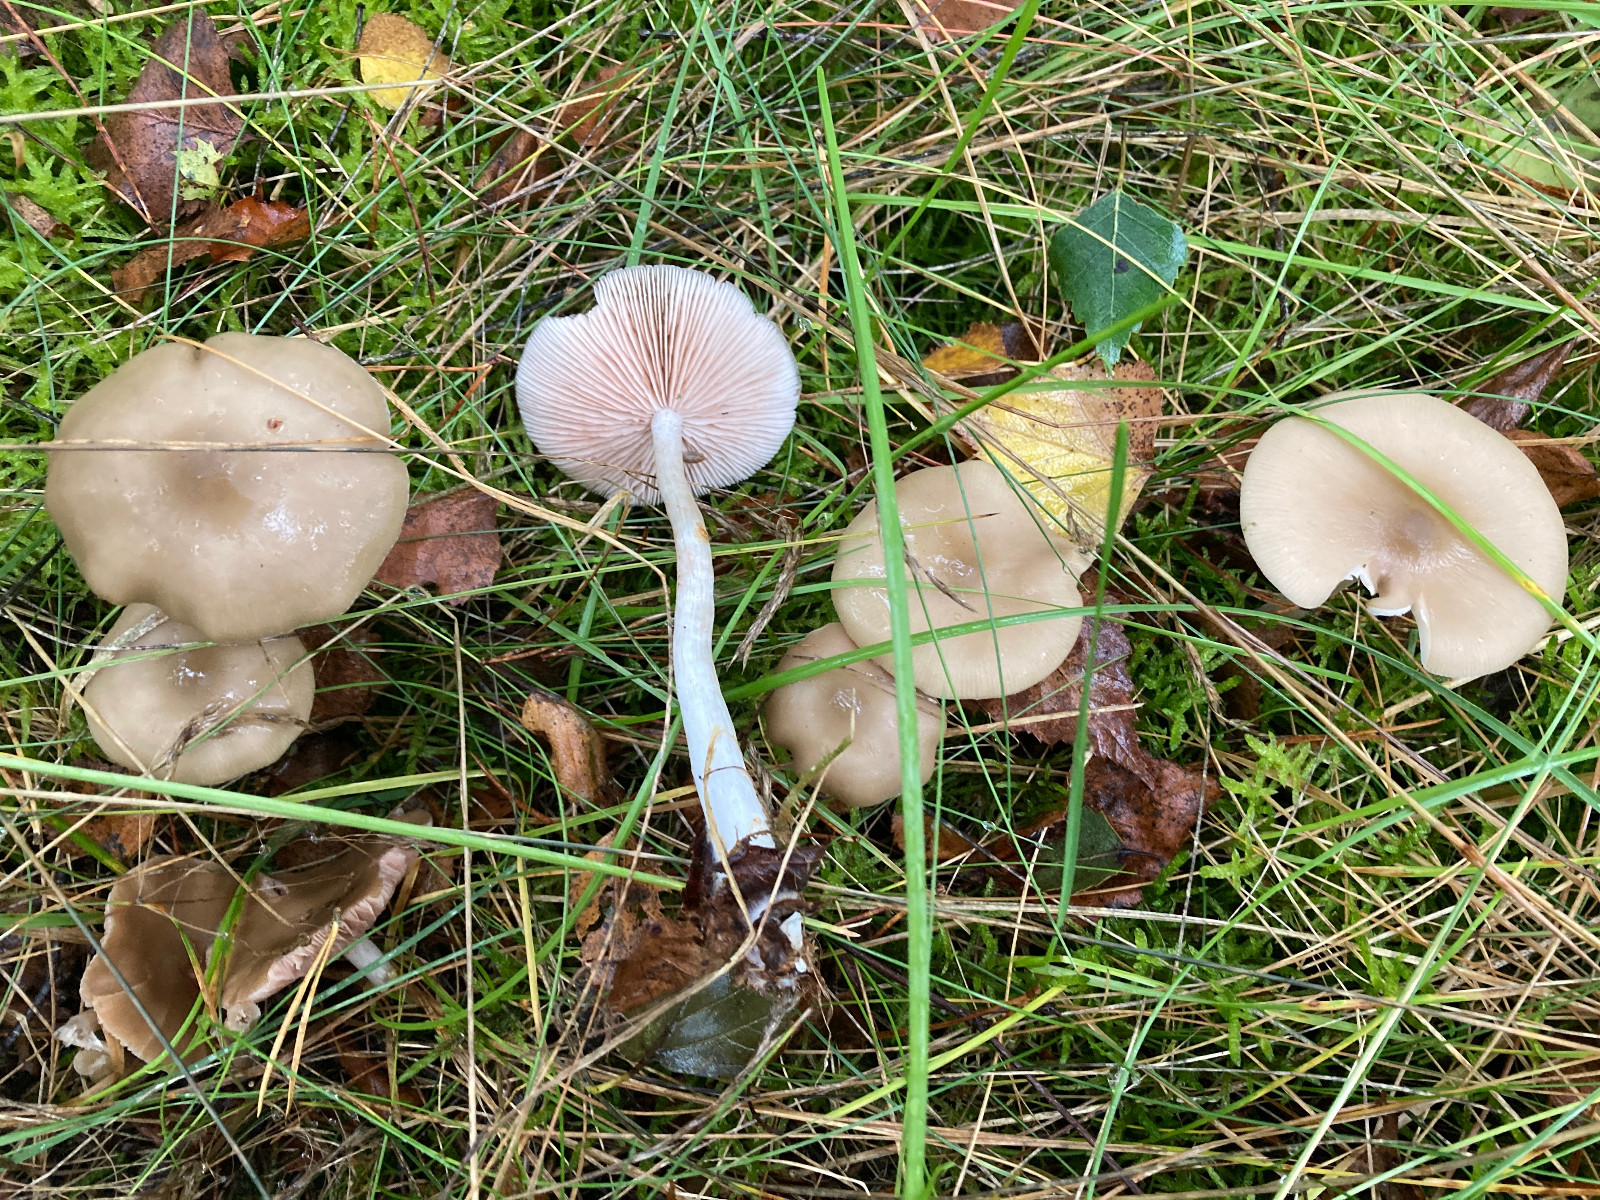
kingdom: Fungi
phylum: Basidiomycota
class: Agaricomycetes
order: Agaricales
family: Entolomataceae
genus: Entoloma
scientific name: Entoloma rhodopolium
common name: skov-rødblad
